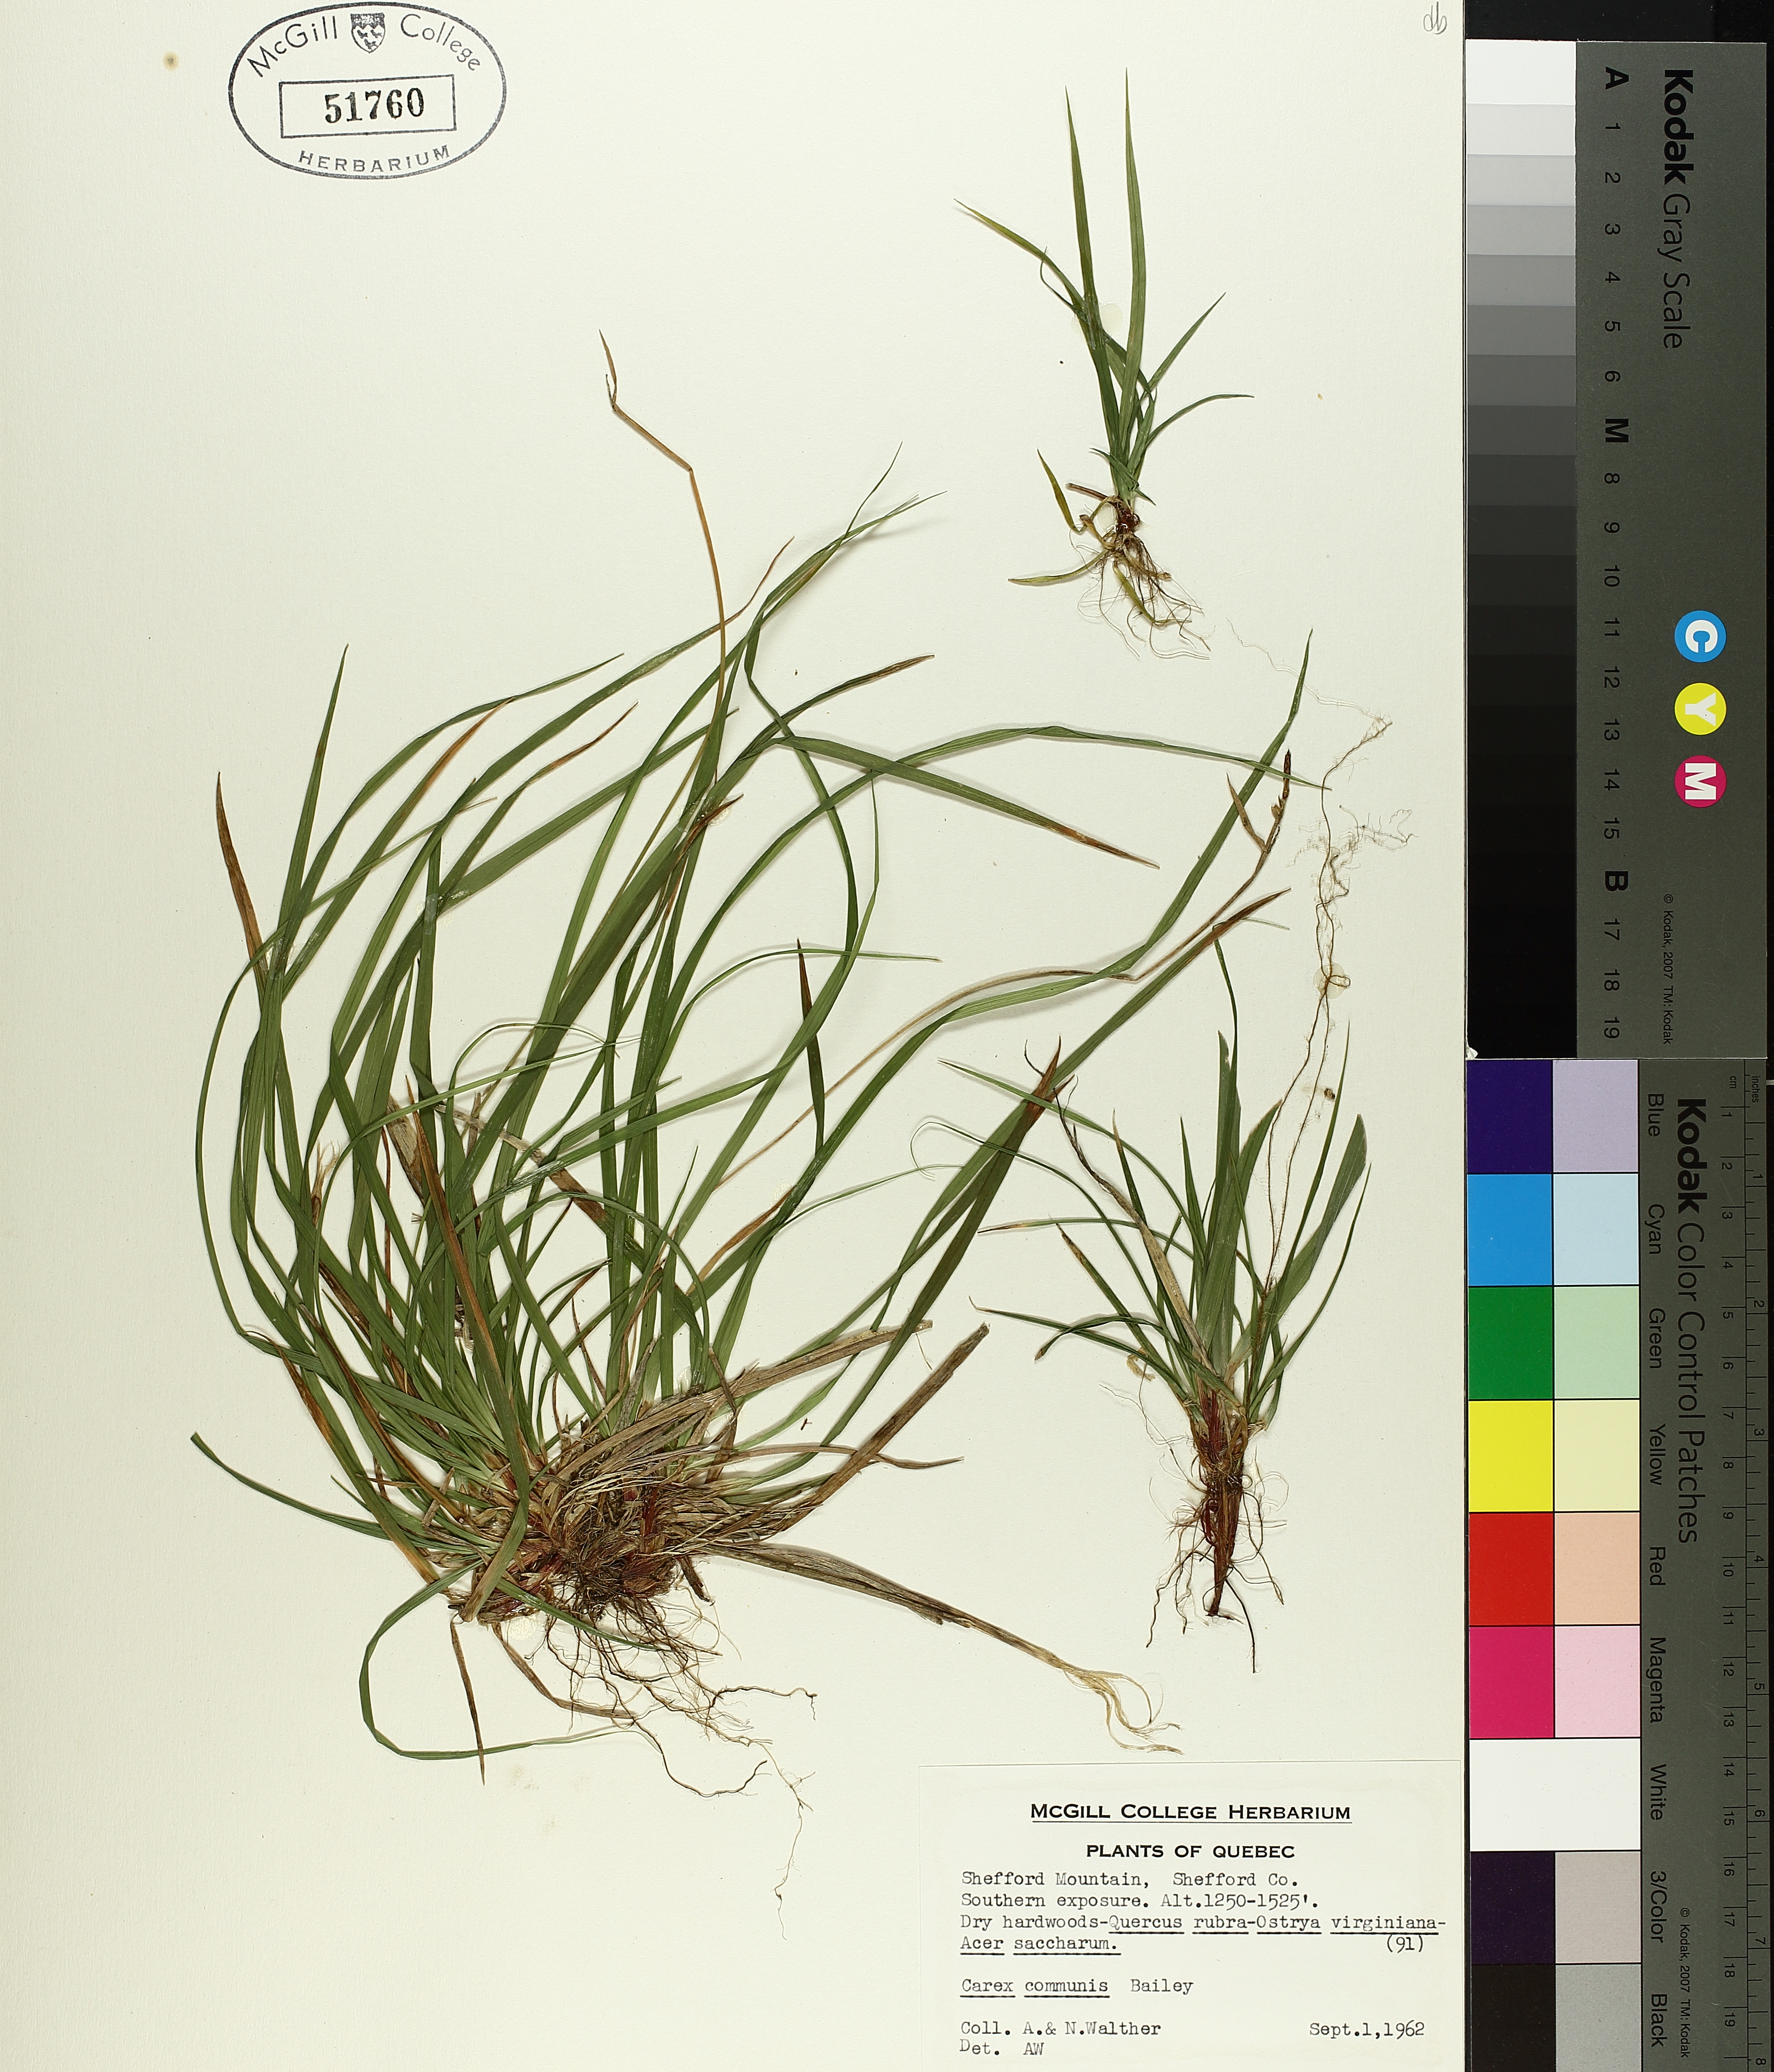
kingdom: Plantae
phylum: Tracheophyta
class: Liliopsida
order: Poales
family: Cyperaceae
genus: Carex
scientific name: Carex communis
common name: Colonial oak sedge
